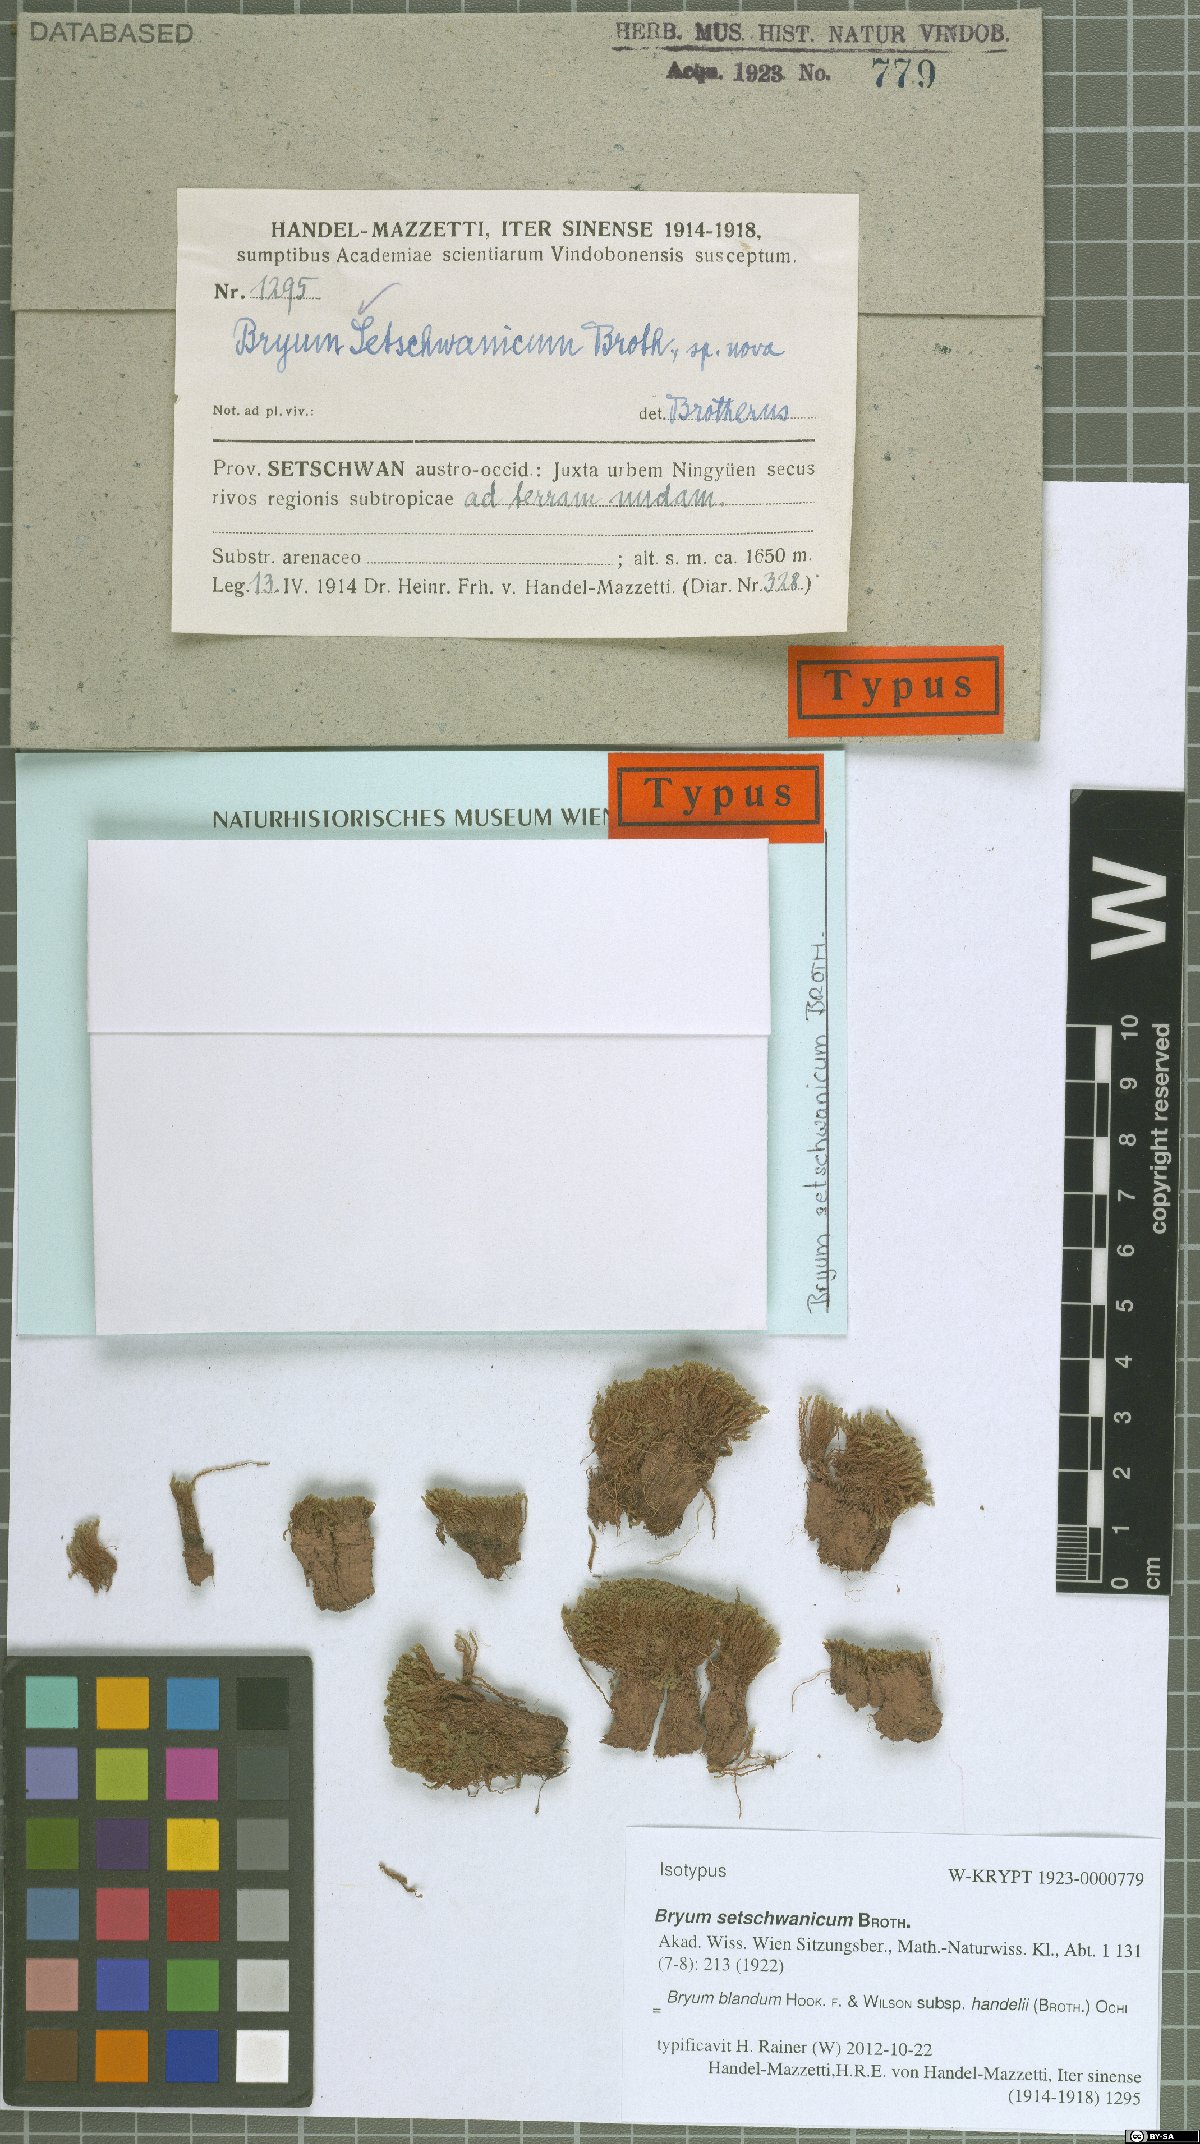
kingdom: Plantae
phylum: Bryophyta
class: Bryopsida
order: Bryales
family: Bryaceae
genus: Plagiobryoides
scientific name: Plagiobryoides cellularis
